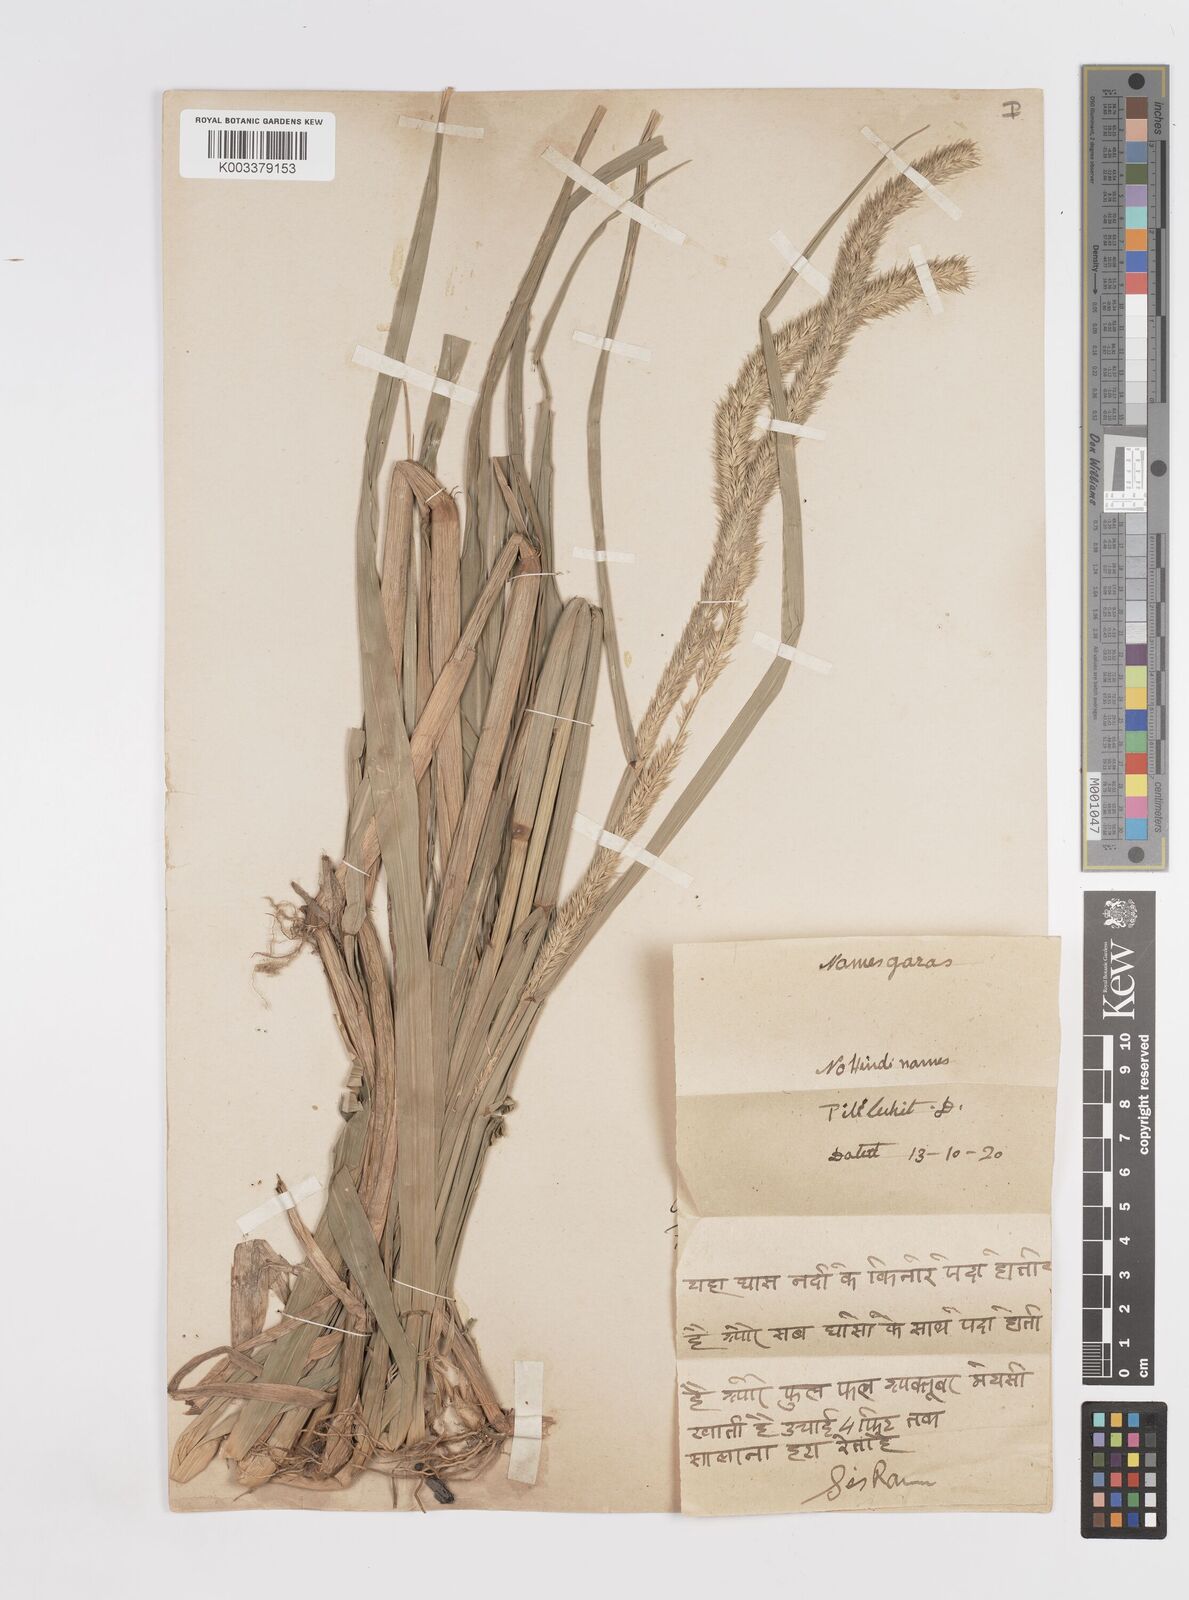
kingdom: Plantae
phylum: Tracheophyta
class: Liliopsida
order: Poales
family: Poaceae
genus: Hymenachne
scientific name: Hymenachne amplexicaulis
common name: Olive hymenachne
